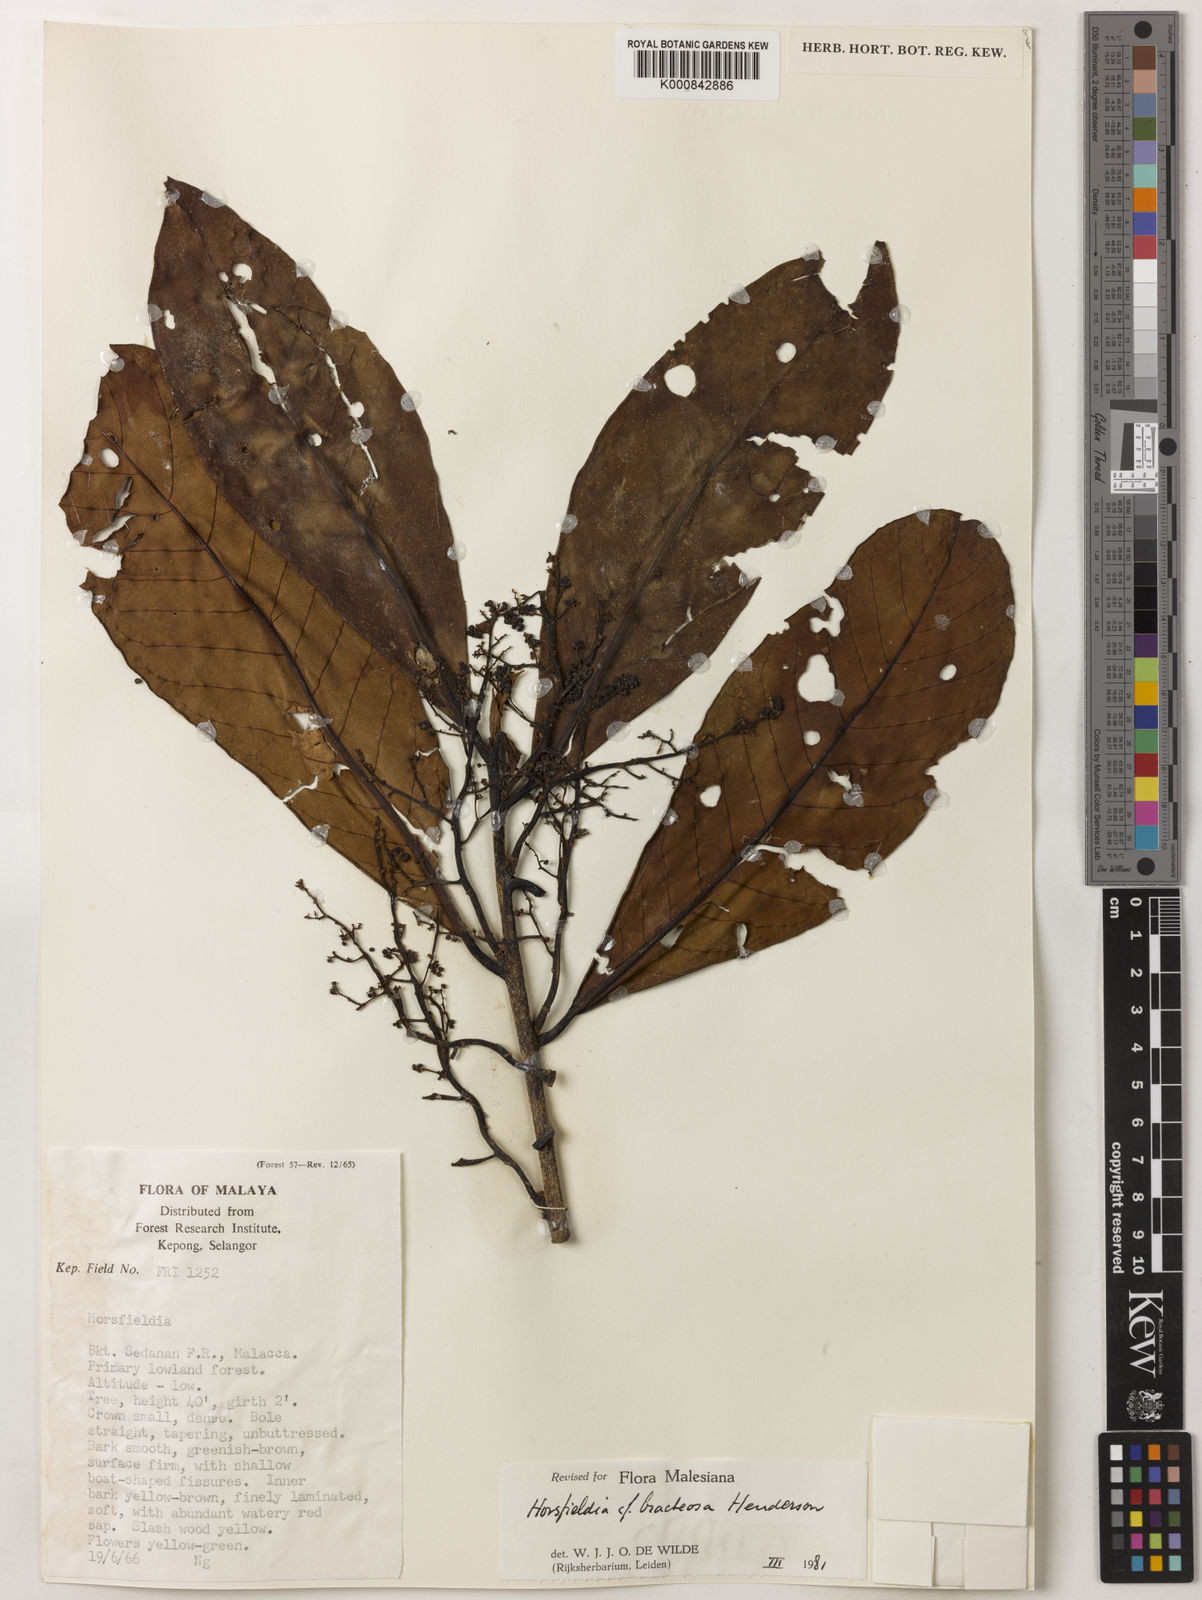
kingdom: Plantae
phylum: Tracheophyta
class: Magnoliopsida
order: Magnoliales
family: Myristicaceae
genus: Horsfieldia
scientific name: Horsfieldia sucosa
